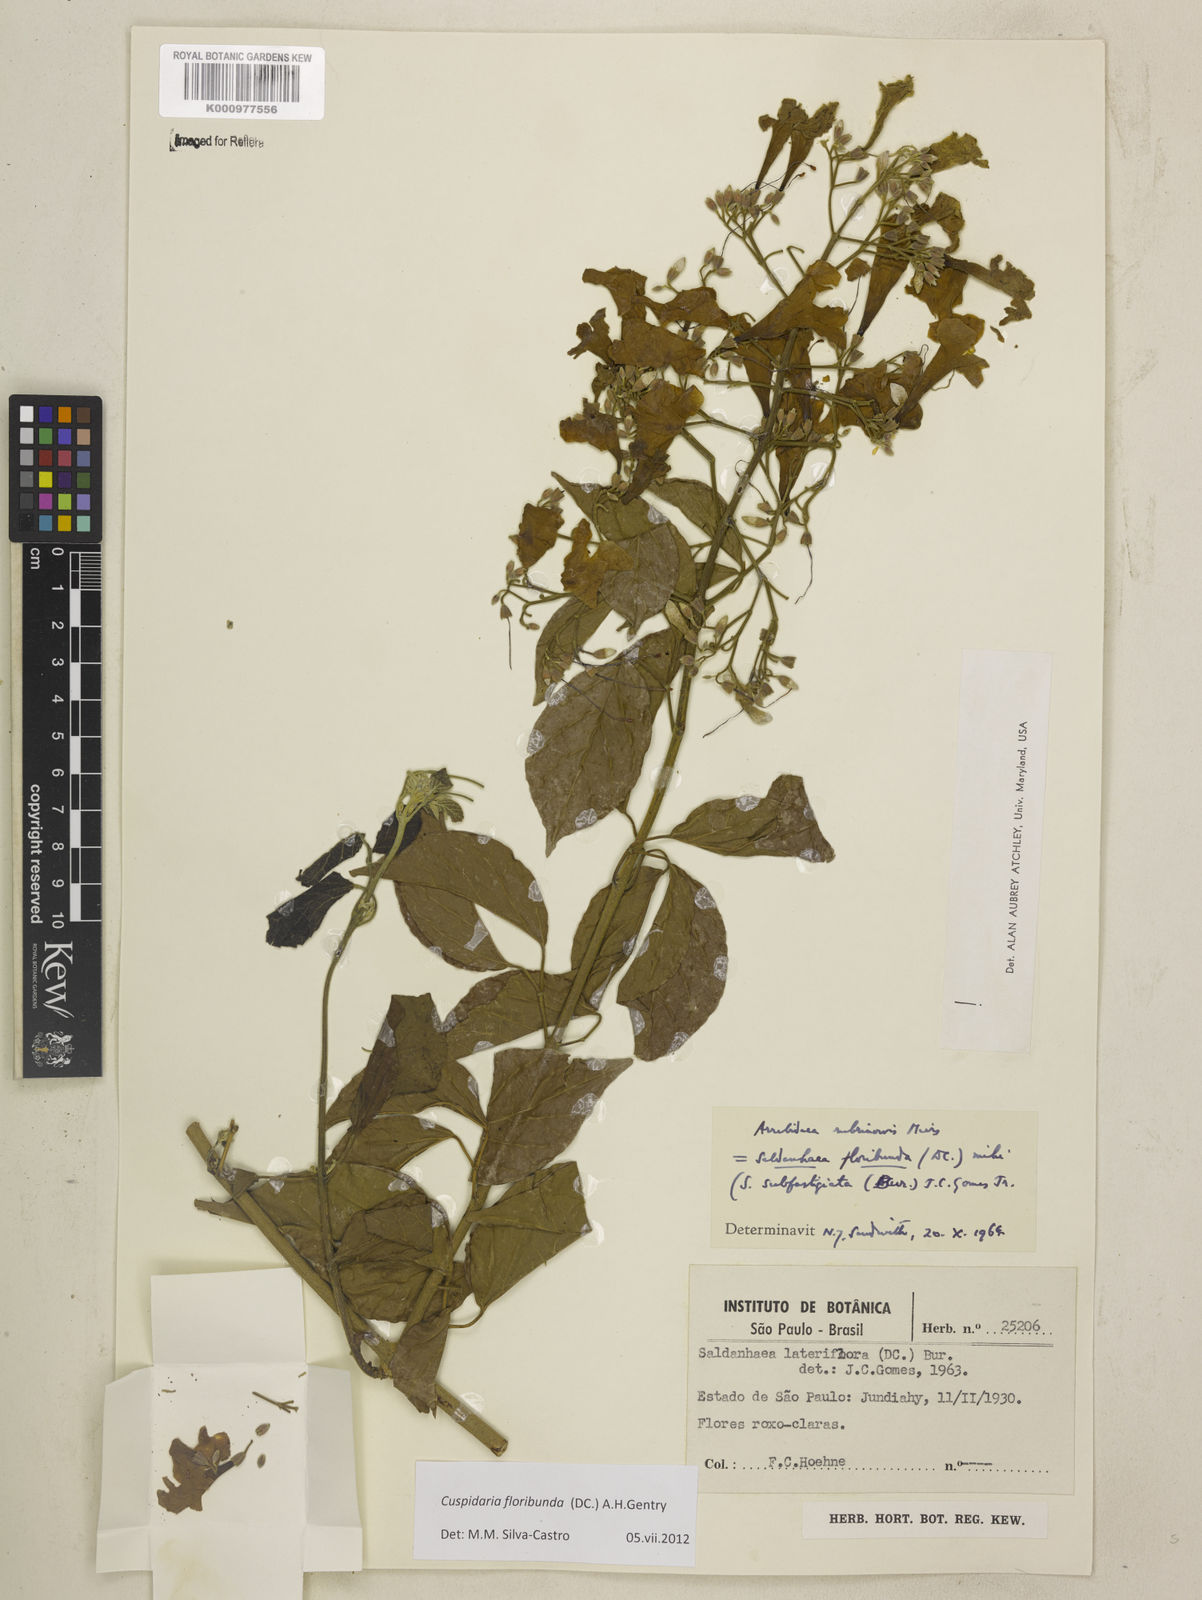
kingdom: Plantae
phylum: Tracheophyta
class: Magnoliopsida
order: Lamiales
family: Bignoniaceae
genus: Cuspidaria
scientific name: Cuspidaria floribunda
